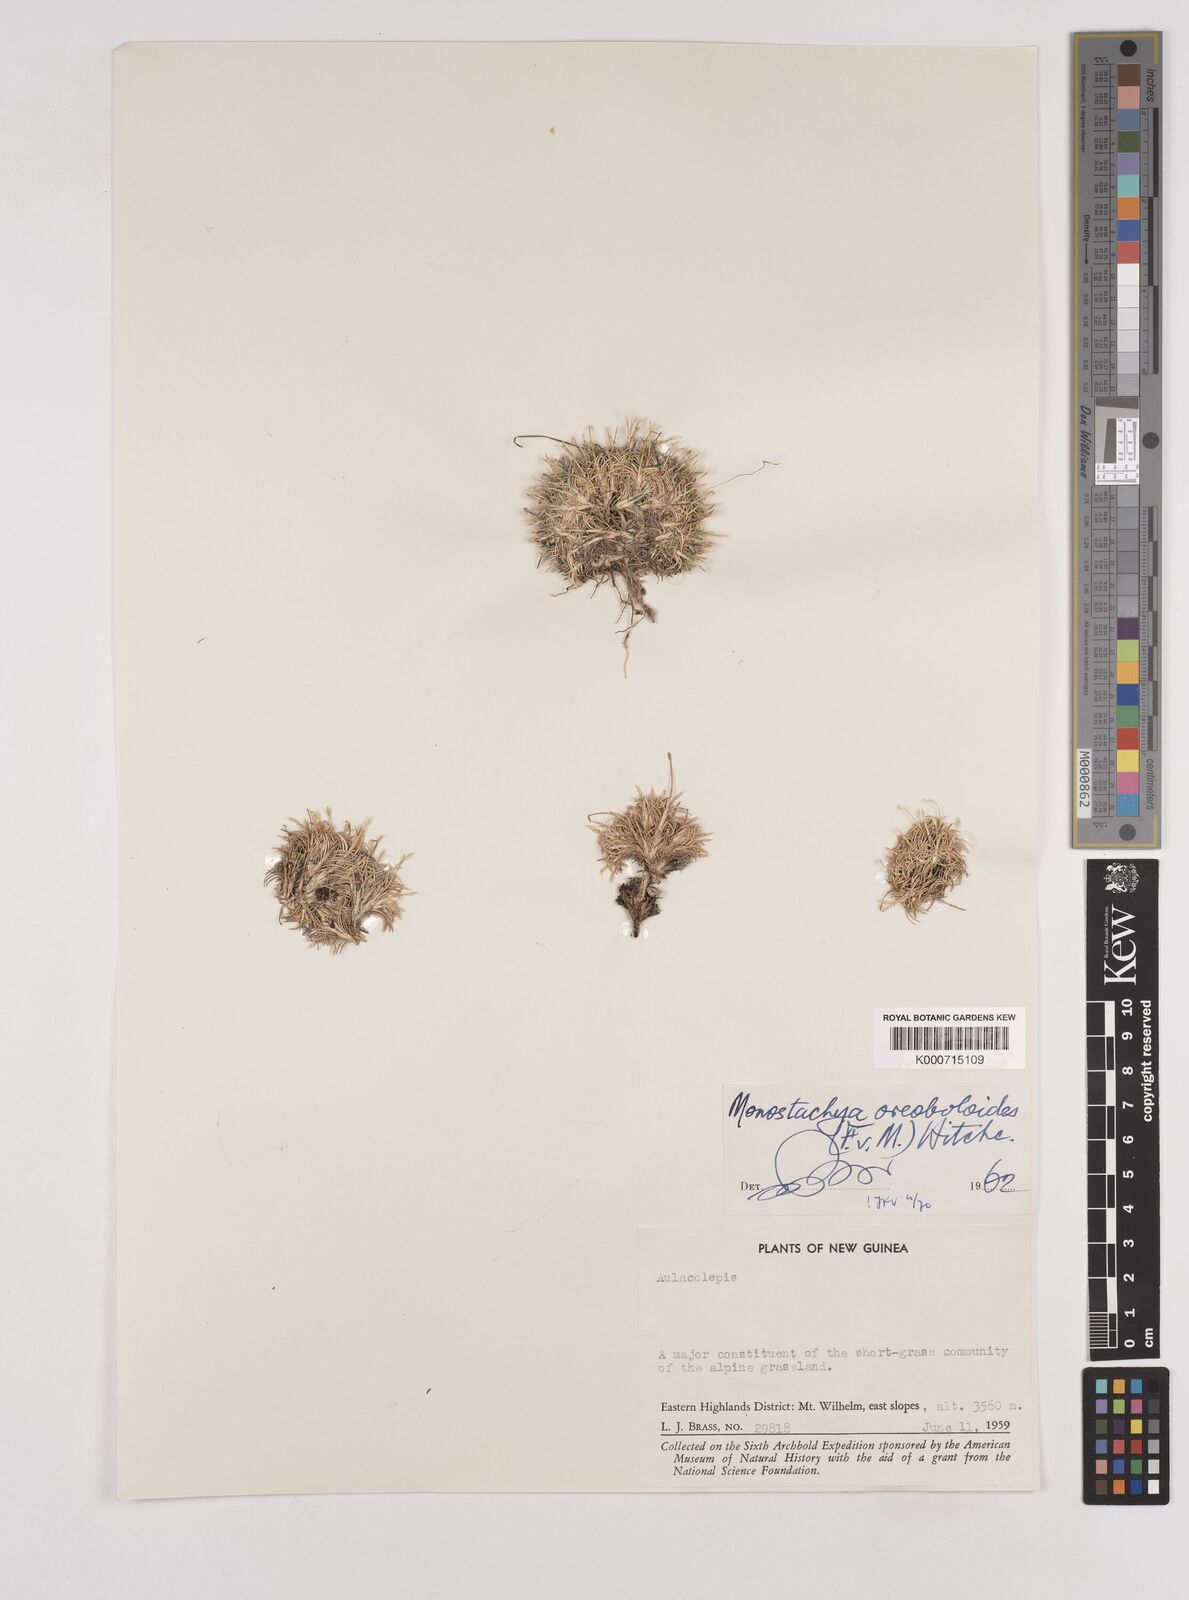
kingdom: Plantae
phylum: Tracheophyta
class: Liliopsida
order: Poales
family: Poaceae
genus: Rytidosperma
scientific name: Rytidosperma oreoboloides
